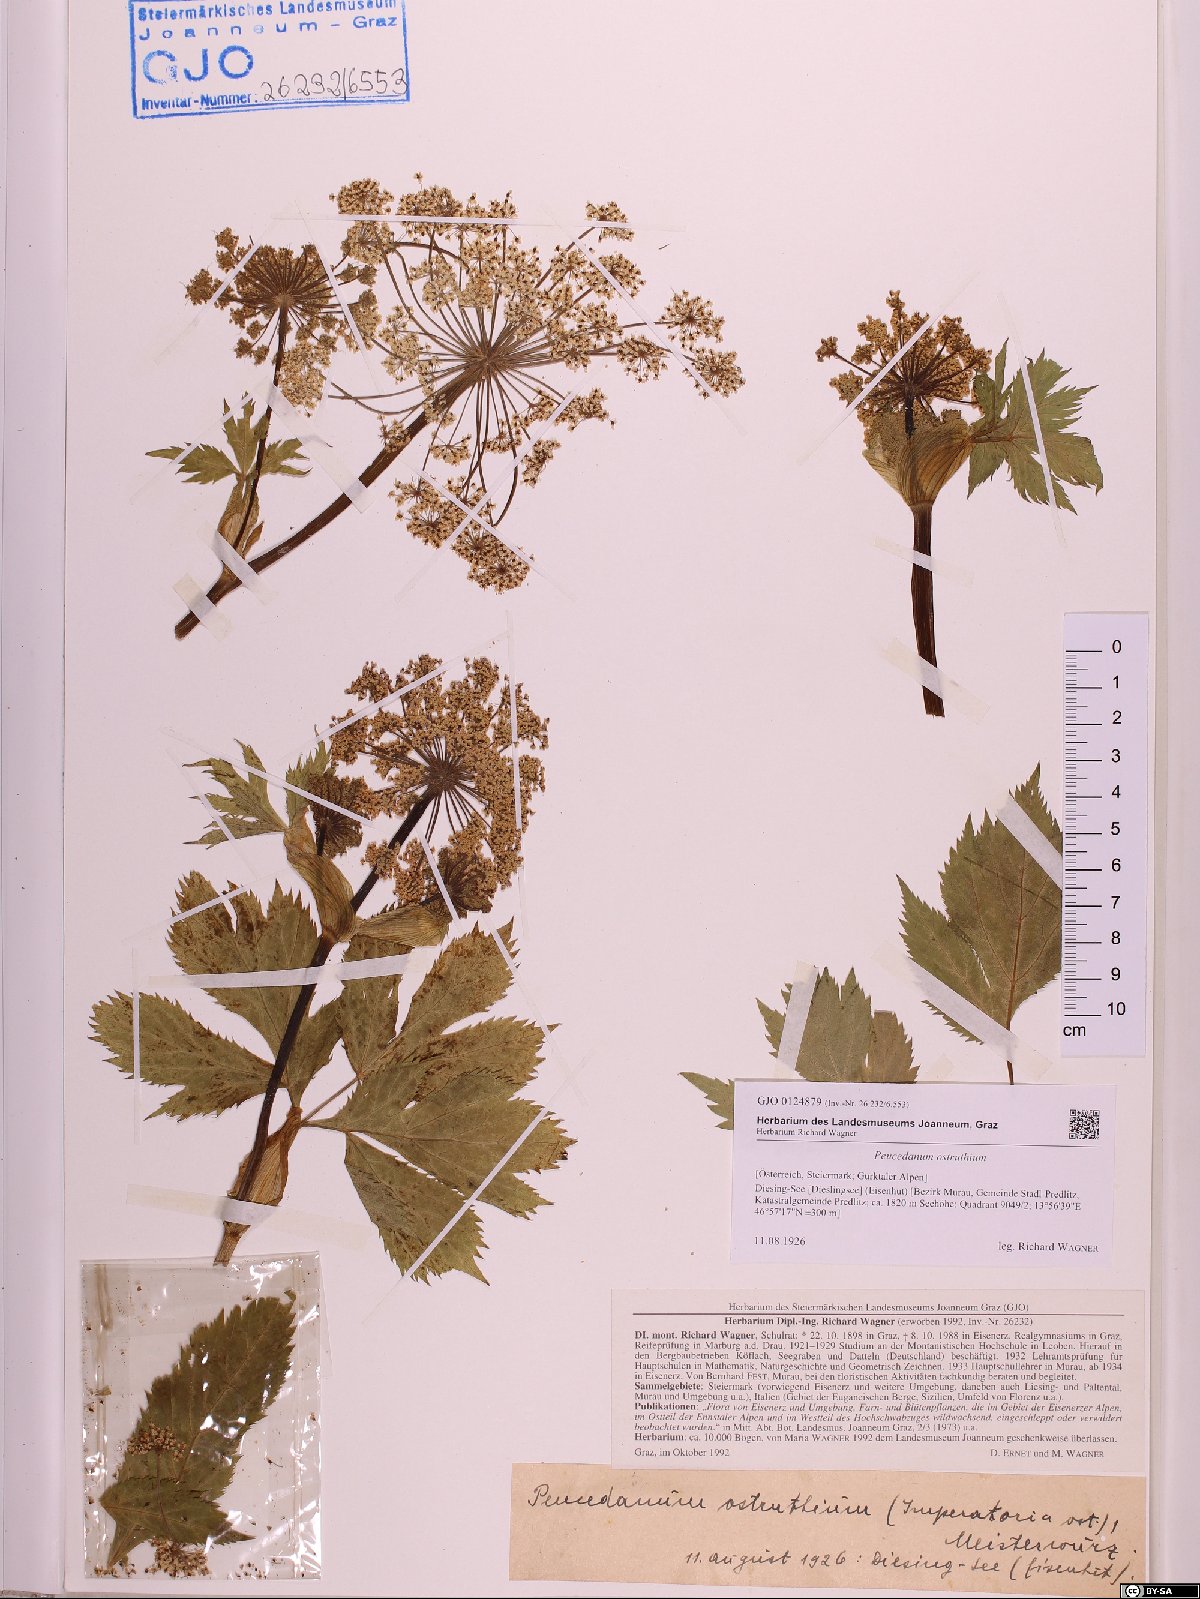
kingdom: Plantae
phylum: Tracheophyta
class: Magnoliopsida
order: Apiales
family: Apiaceae
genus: Imperatoria
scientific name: Imperatoria ostruthium
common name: Masterwort
